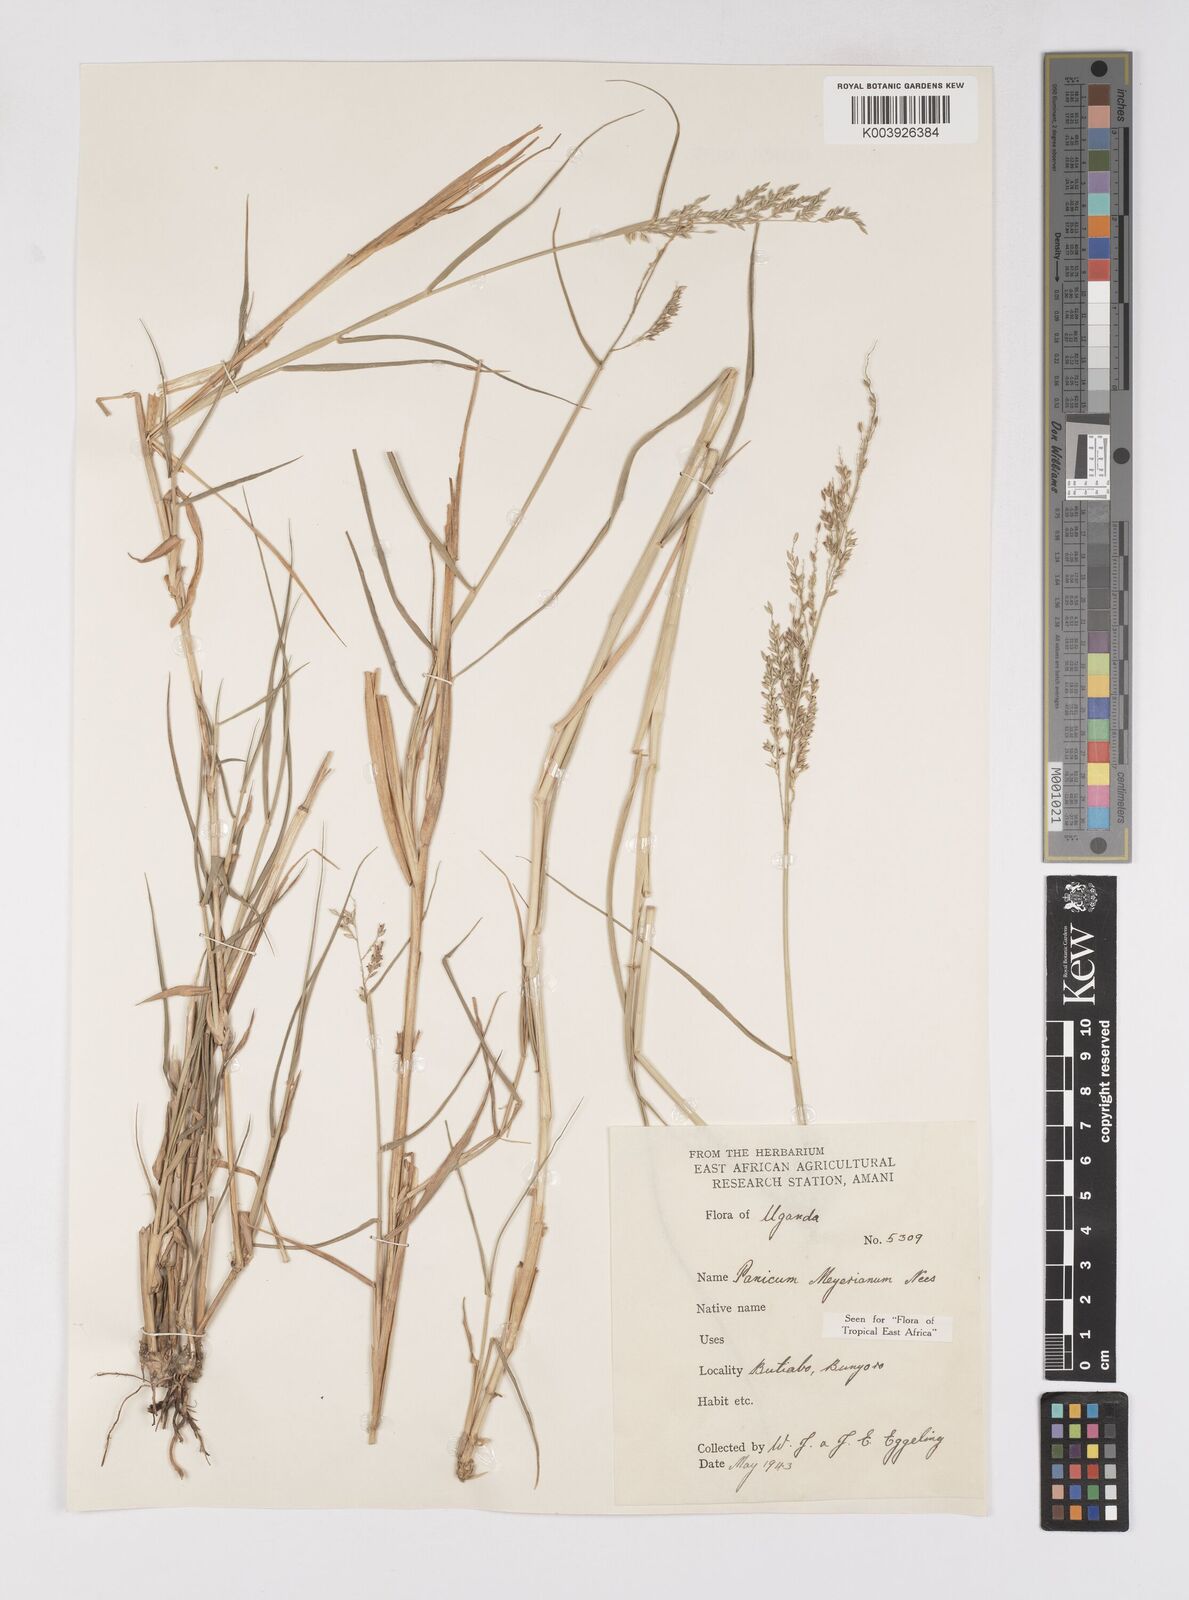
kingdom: Plantae
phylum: Tracheophyta
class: Liliopsida
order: Poales
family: Poaceae
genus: Eriochloa
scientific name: Eriochloa meyeriana
